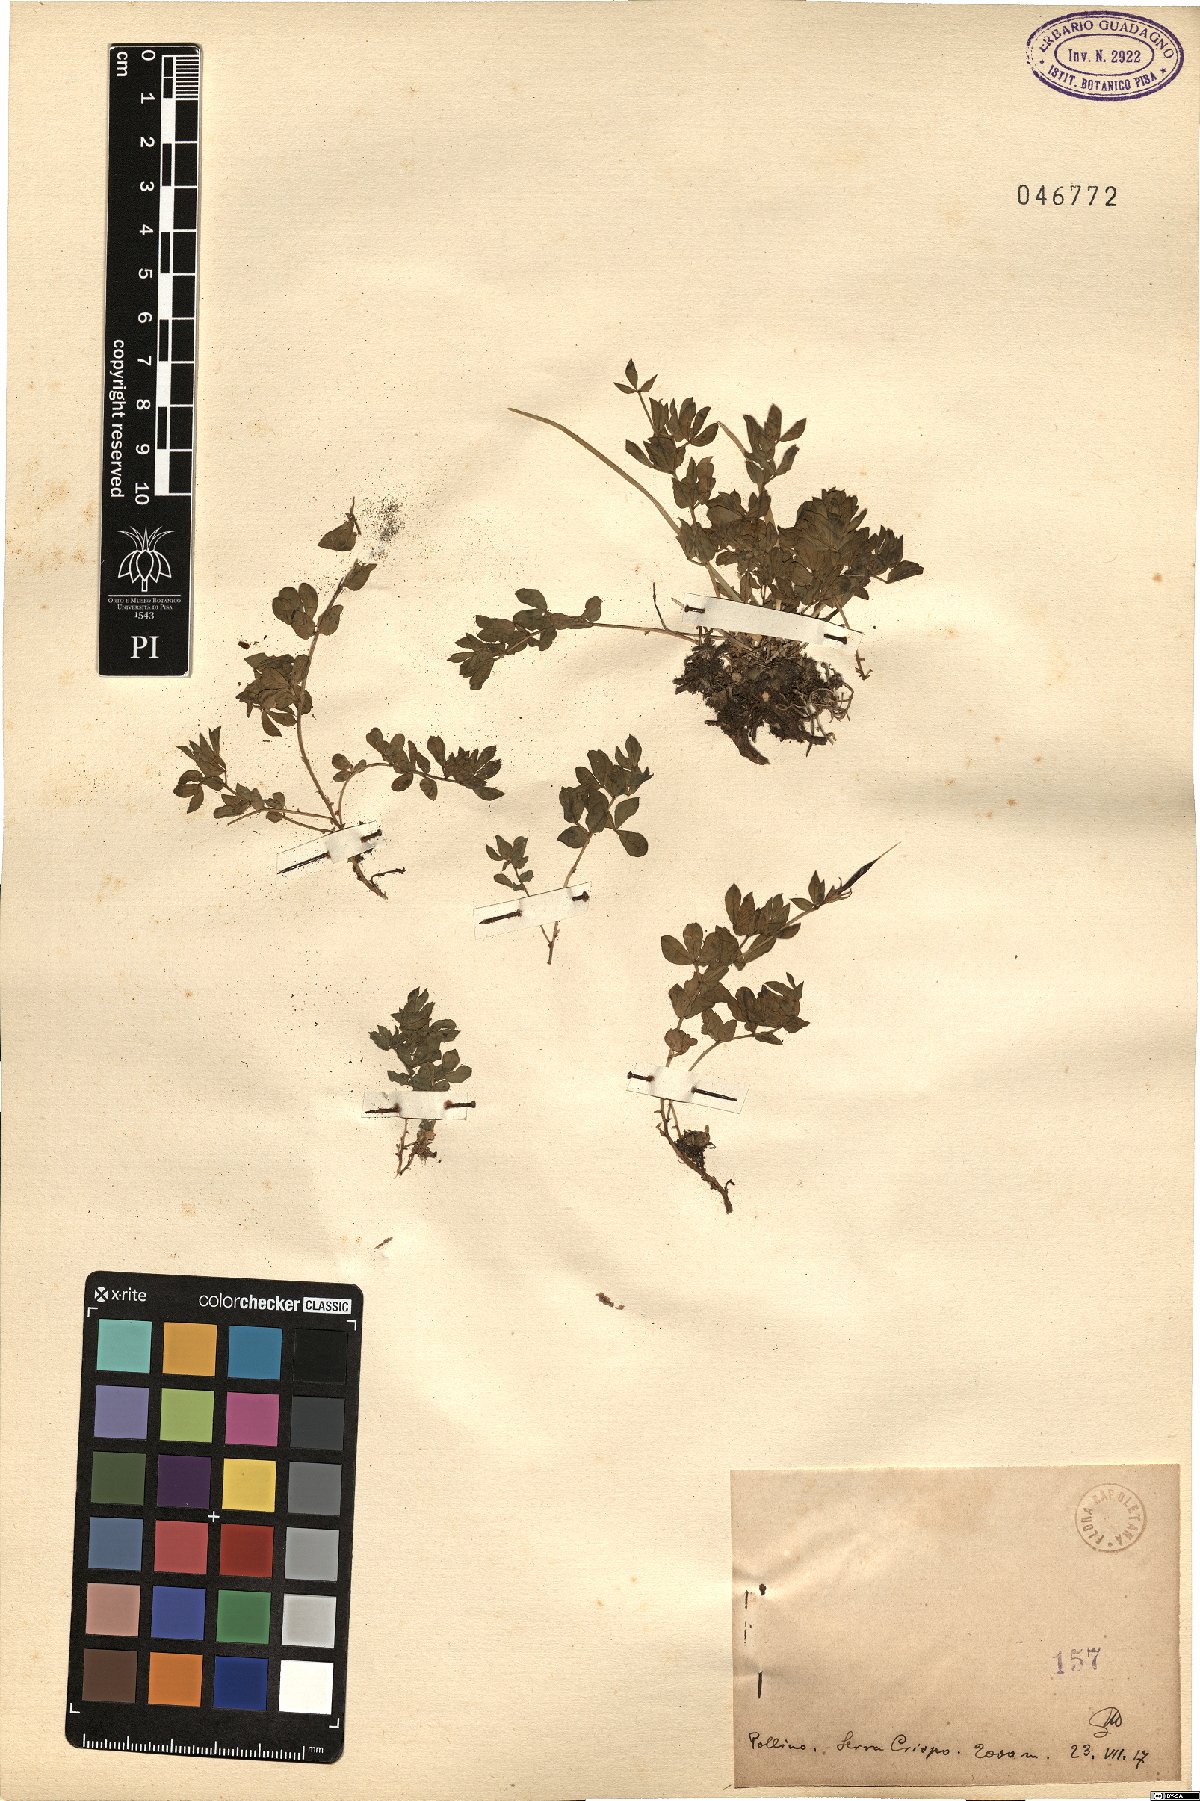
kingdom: Plantae
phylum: Tracheophyta
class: Magnoliopsida
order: Fabales
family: Fabaceae
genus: Lotus
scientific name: Lotus
